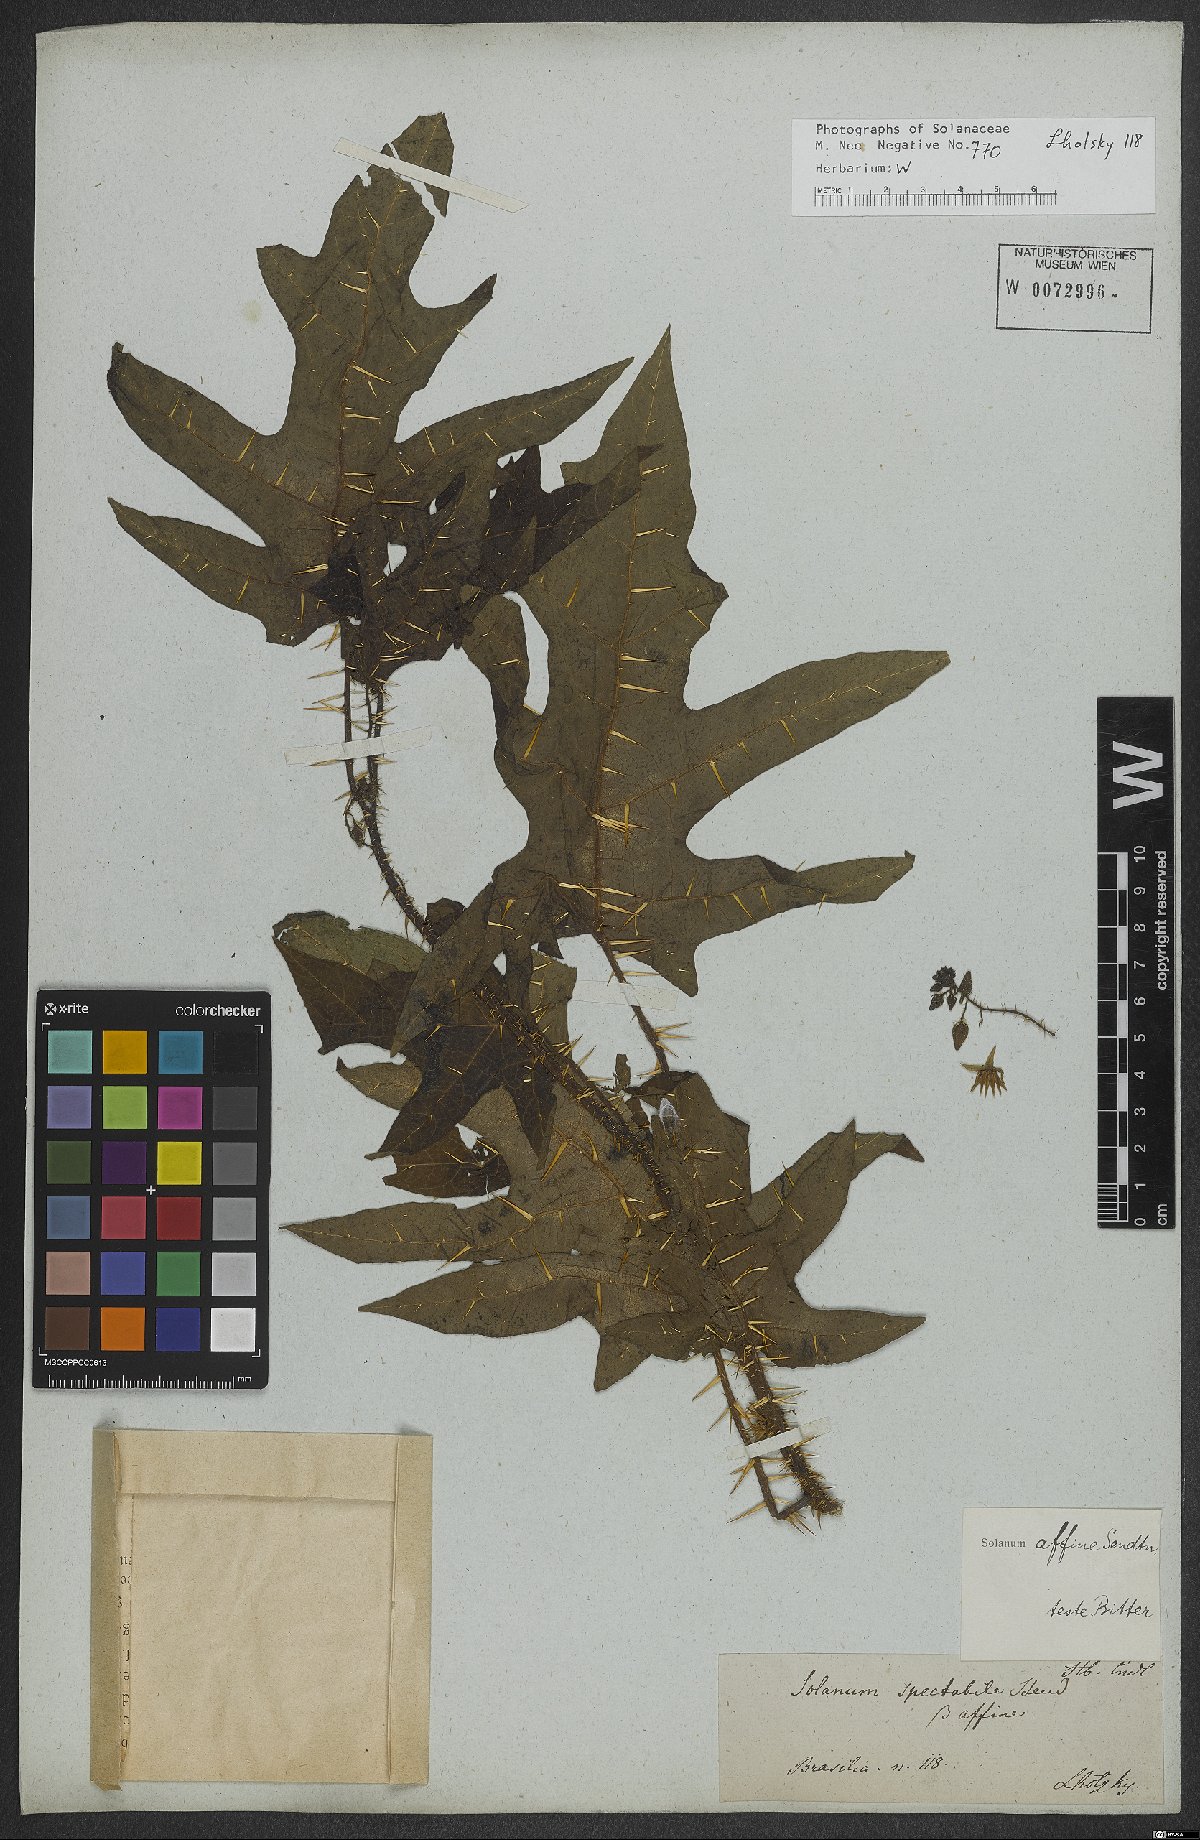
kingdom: Plantae
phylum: Tracheophyta
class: Magnoliopsida
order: Solanales
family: Solanaceae
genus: Solanum
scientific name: Solanum affine
